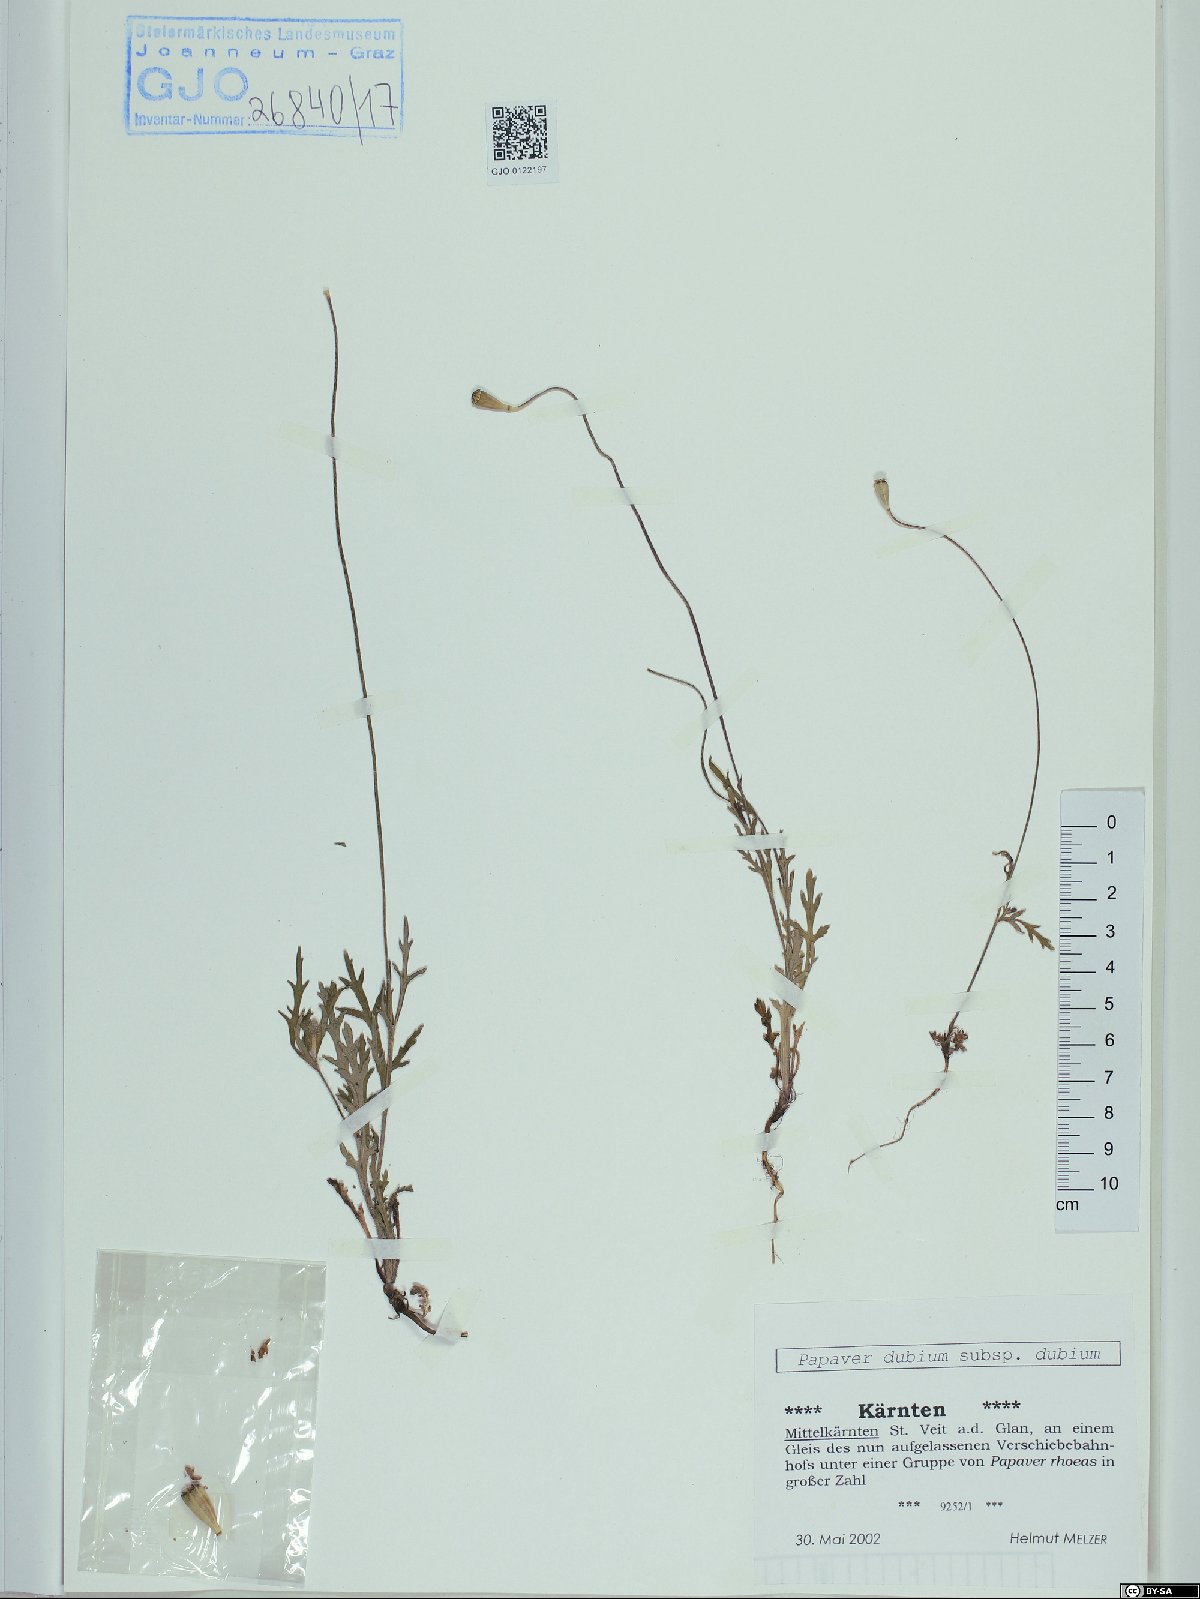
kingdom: Plantae
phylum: Tracheophyta
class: Magnoliopsida
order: Ranunculales
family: Papaveraceae
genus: Papaver
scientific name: Papaver dubium
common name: Long-headed poppy
